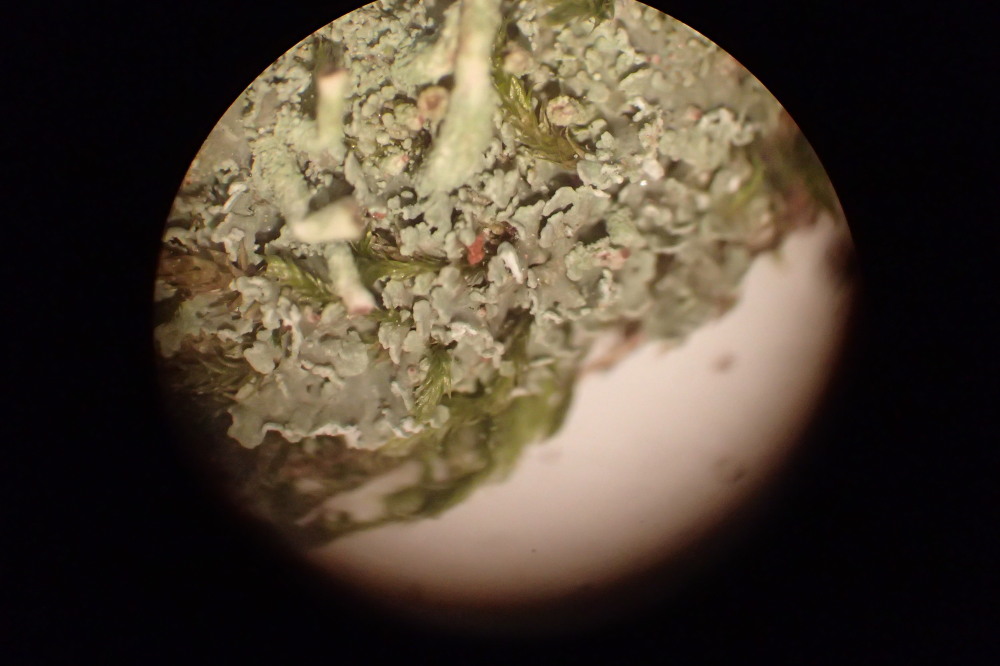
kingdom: Fungi
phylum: Ascomycota
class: Lecanoromycetes
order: Lecanorales
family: Cladoniaceae
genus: Cladonia
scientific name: Cladonia fimbriata
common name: bleggrøn bægerlav
